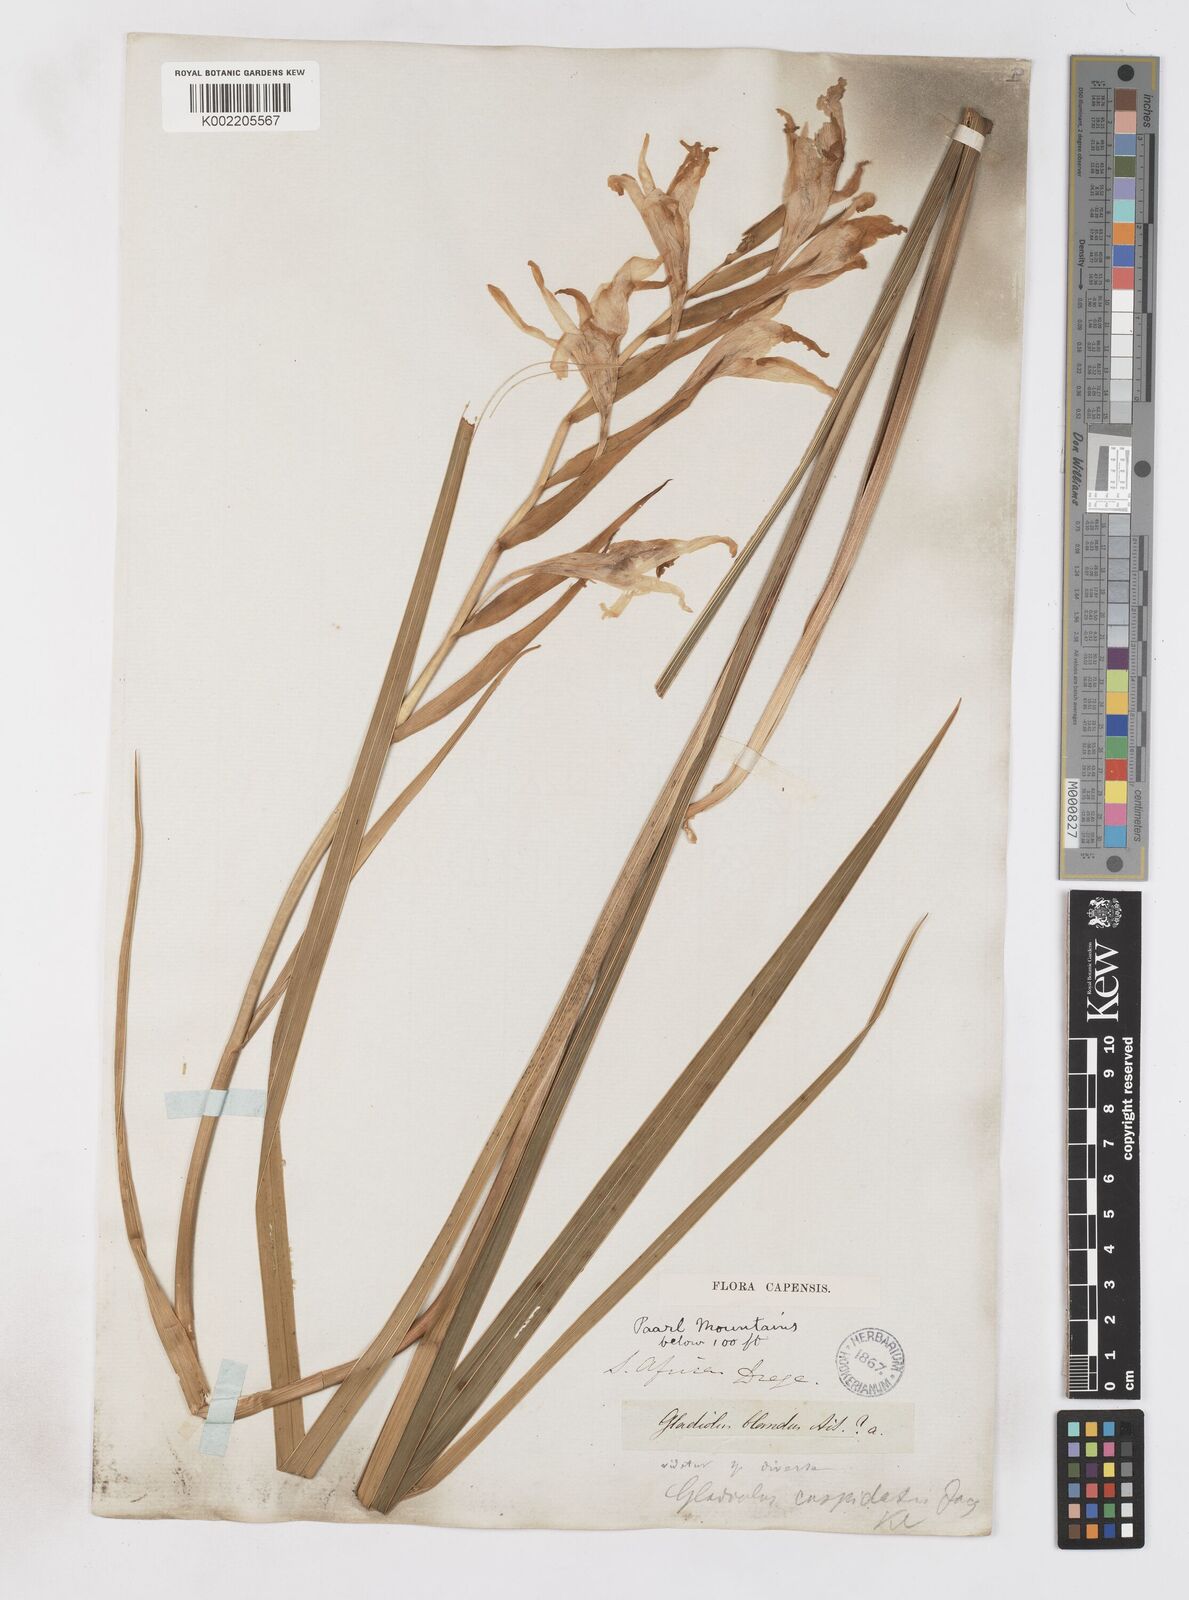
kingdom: Plantae
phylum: Tracheophyta
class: Liliopsida
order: Asparagales
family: Iridaceae
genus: Gladiolus
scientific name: Gladiolus carneus
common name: Painted-lady
